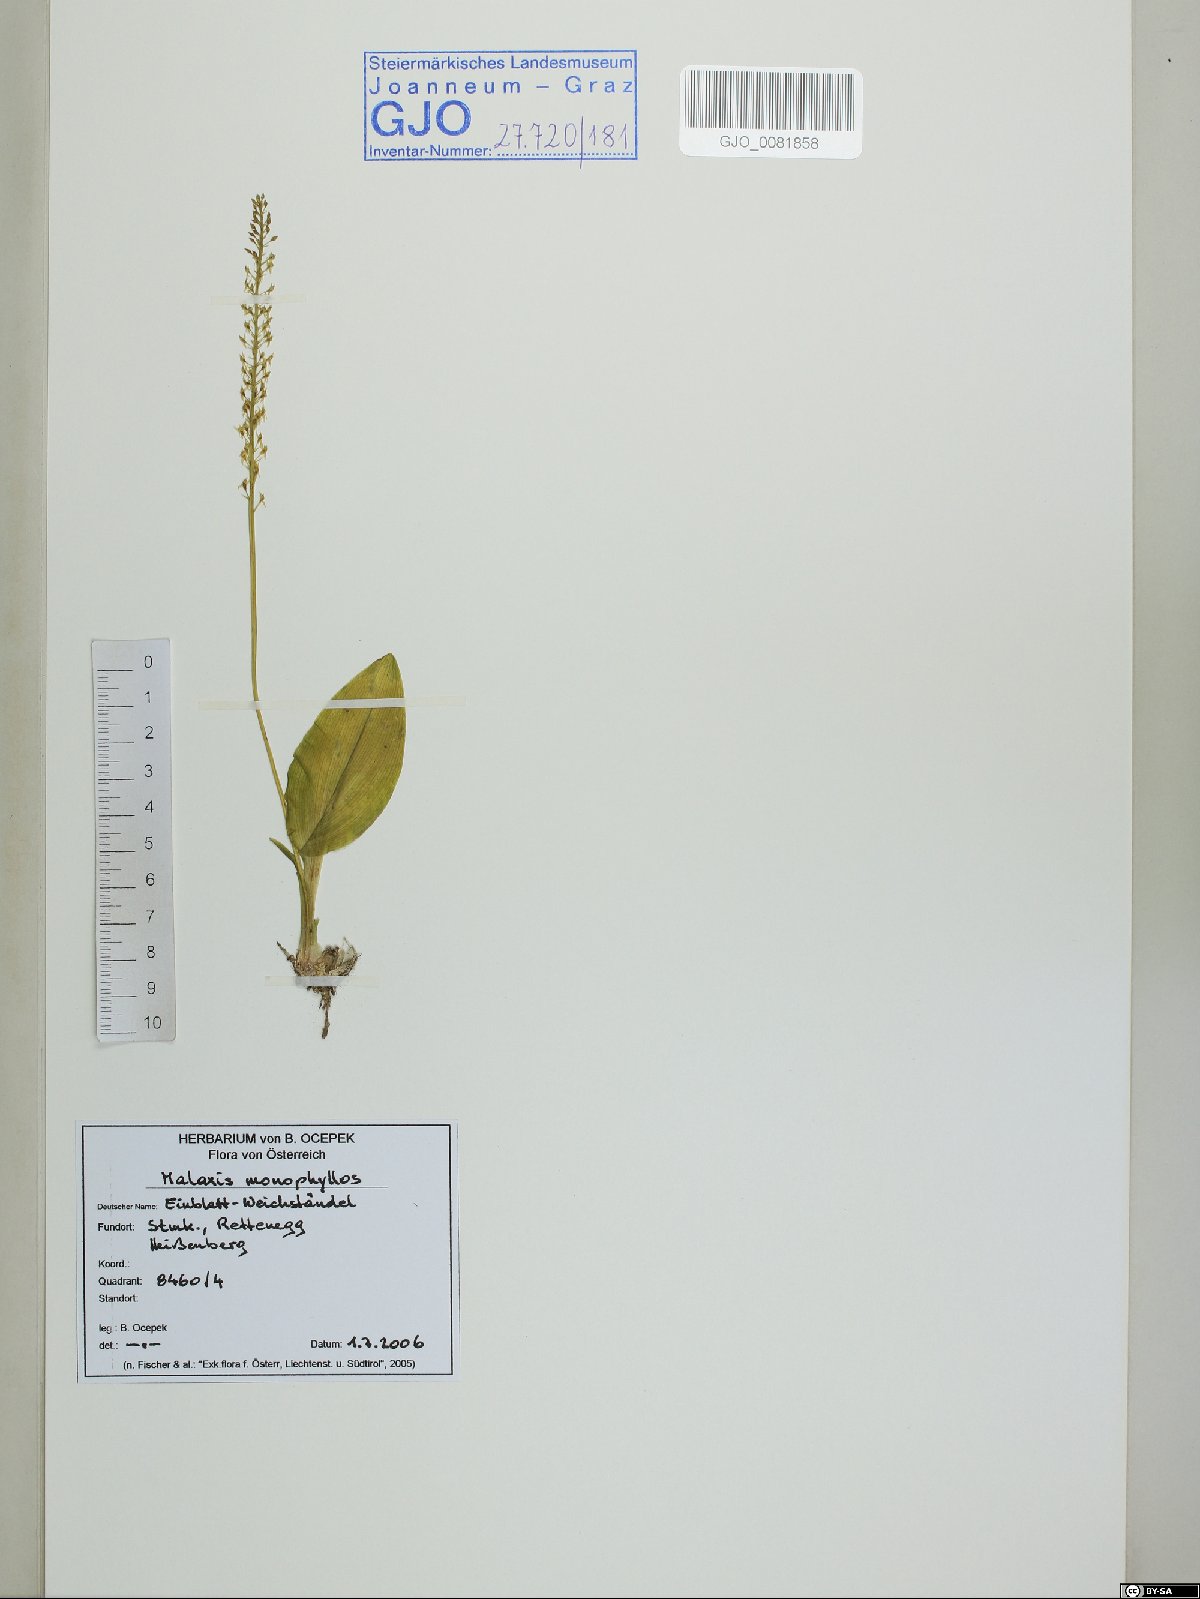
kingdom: Plantae
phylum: Tracheophyta
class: Liliopsida
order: Asparagales
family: Orchidaceae
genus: Malaxis
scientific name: Malaxis monophyllos
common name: White adder's-mouth
